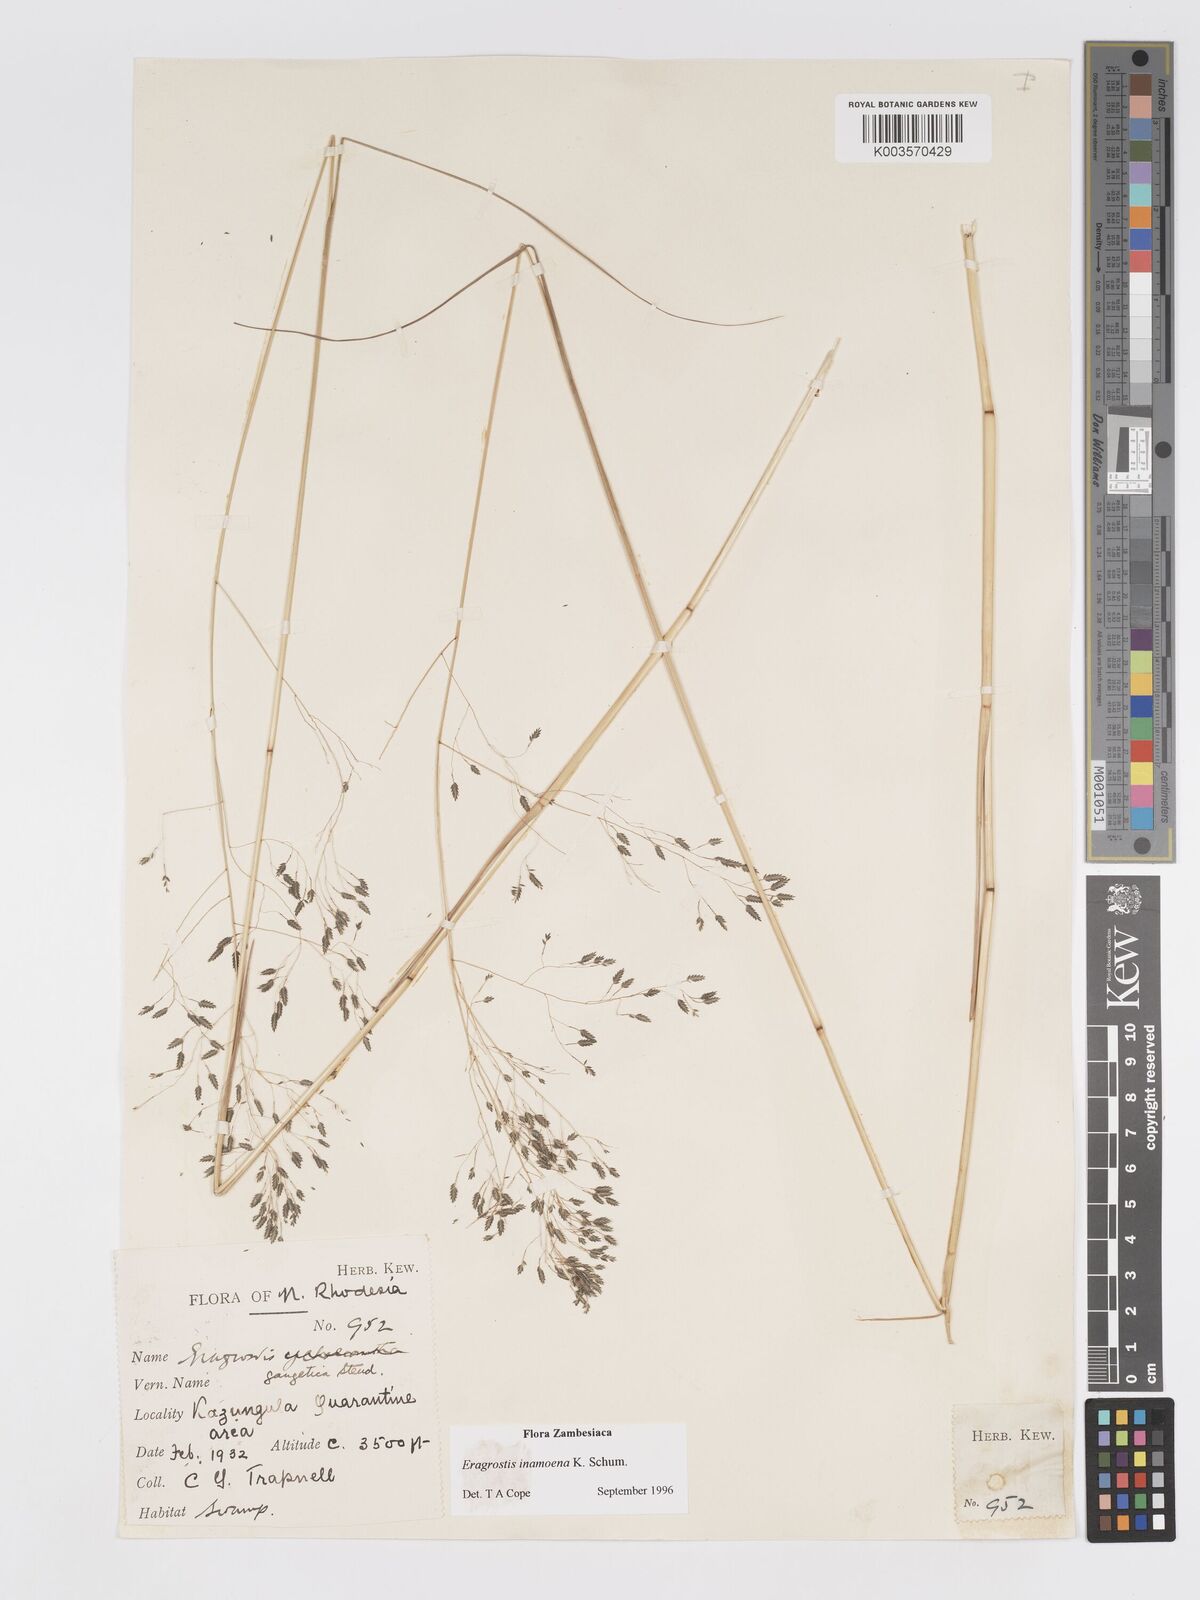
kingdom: Plantae
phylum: Tracheophyta
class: Liliopsida
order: Poales
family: Poaceae
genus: Eragrostis
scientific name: Eragrostis inamoena
